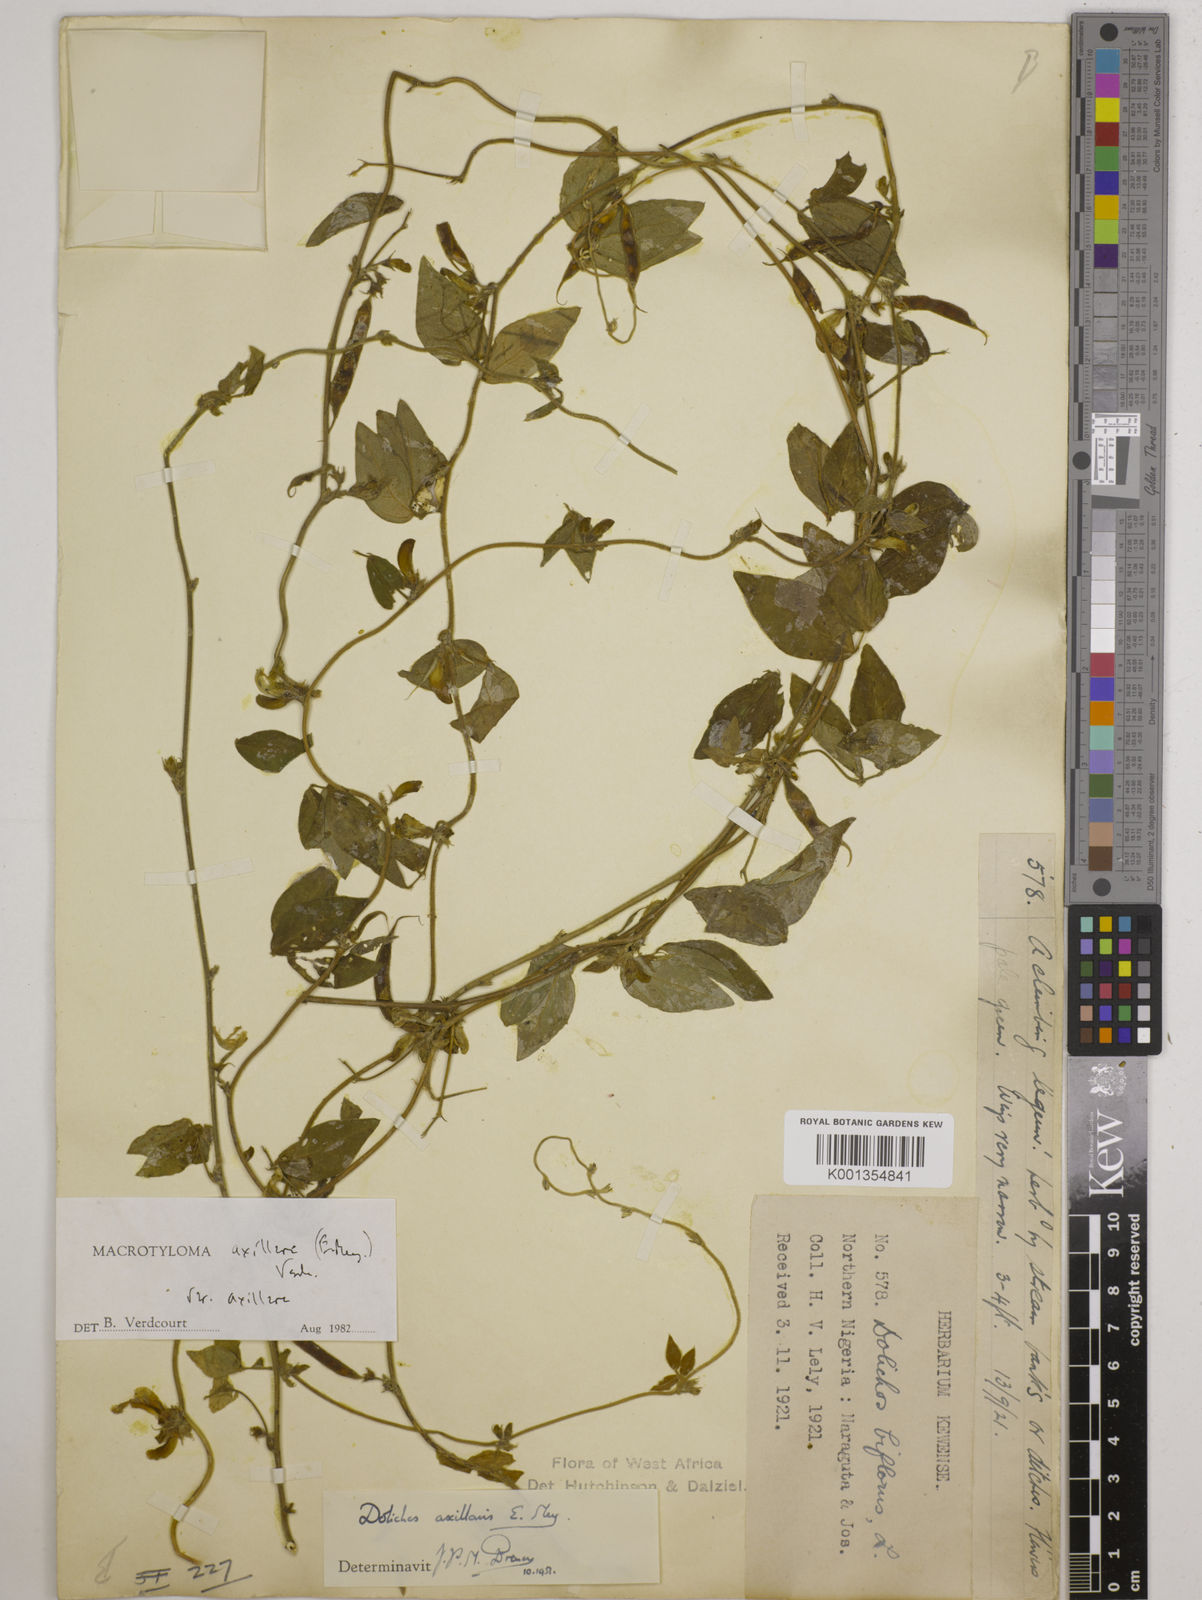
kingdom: Plantae
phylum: Tracheophyta
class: Magnoliopsida
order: Fabales
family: Fabaceae
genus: Macrotyloma
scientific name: Macrotyloma axillare
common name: Perennial horsegram
